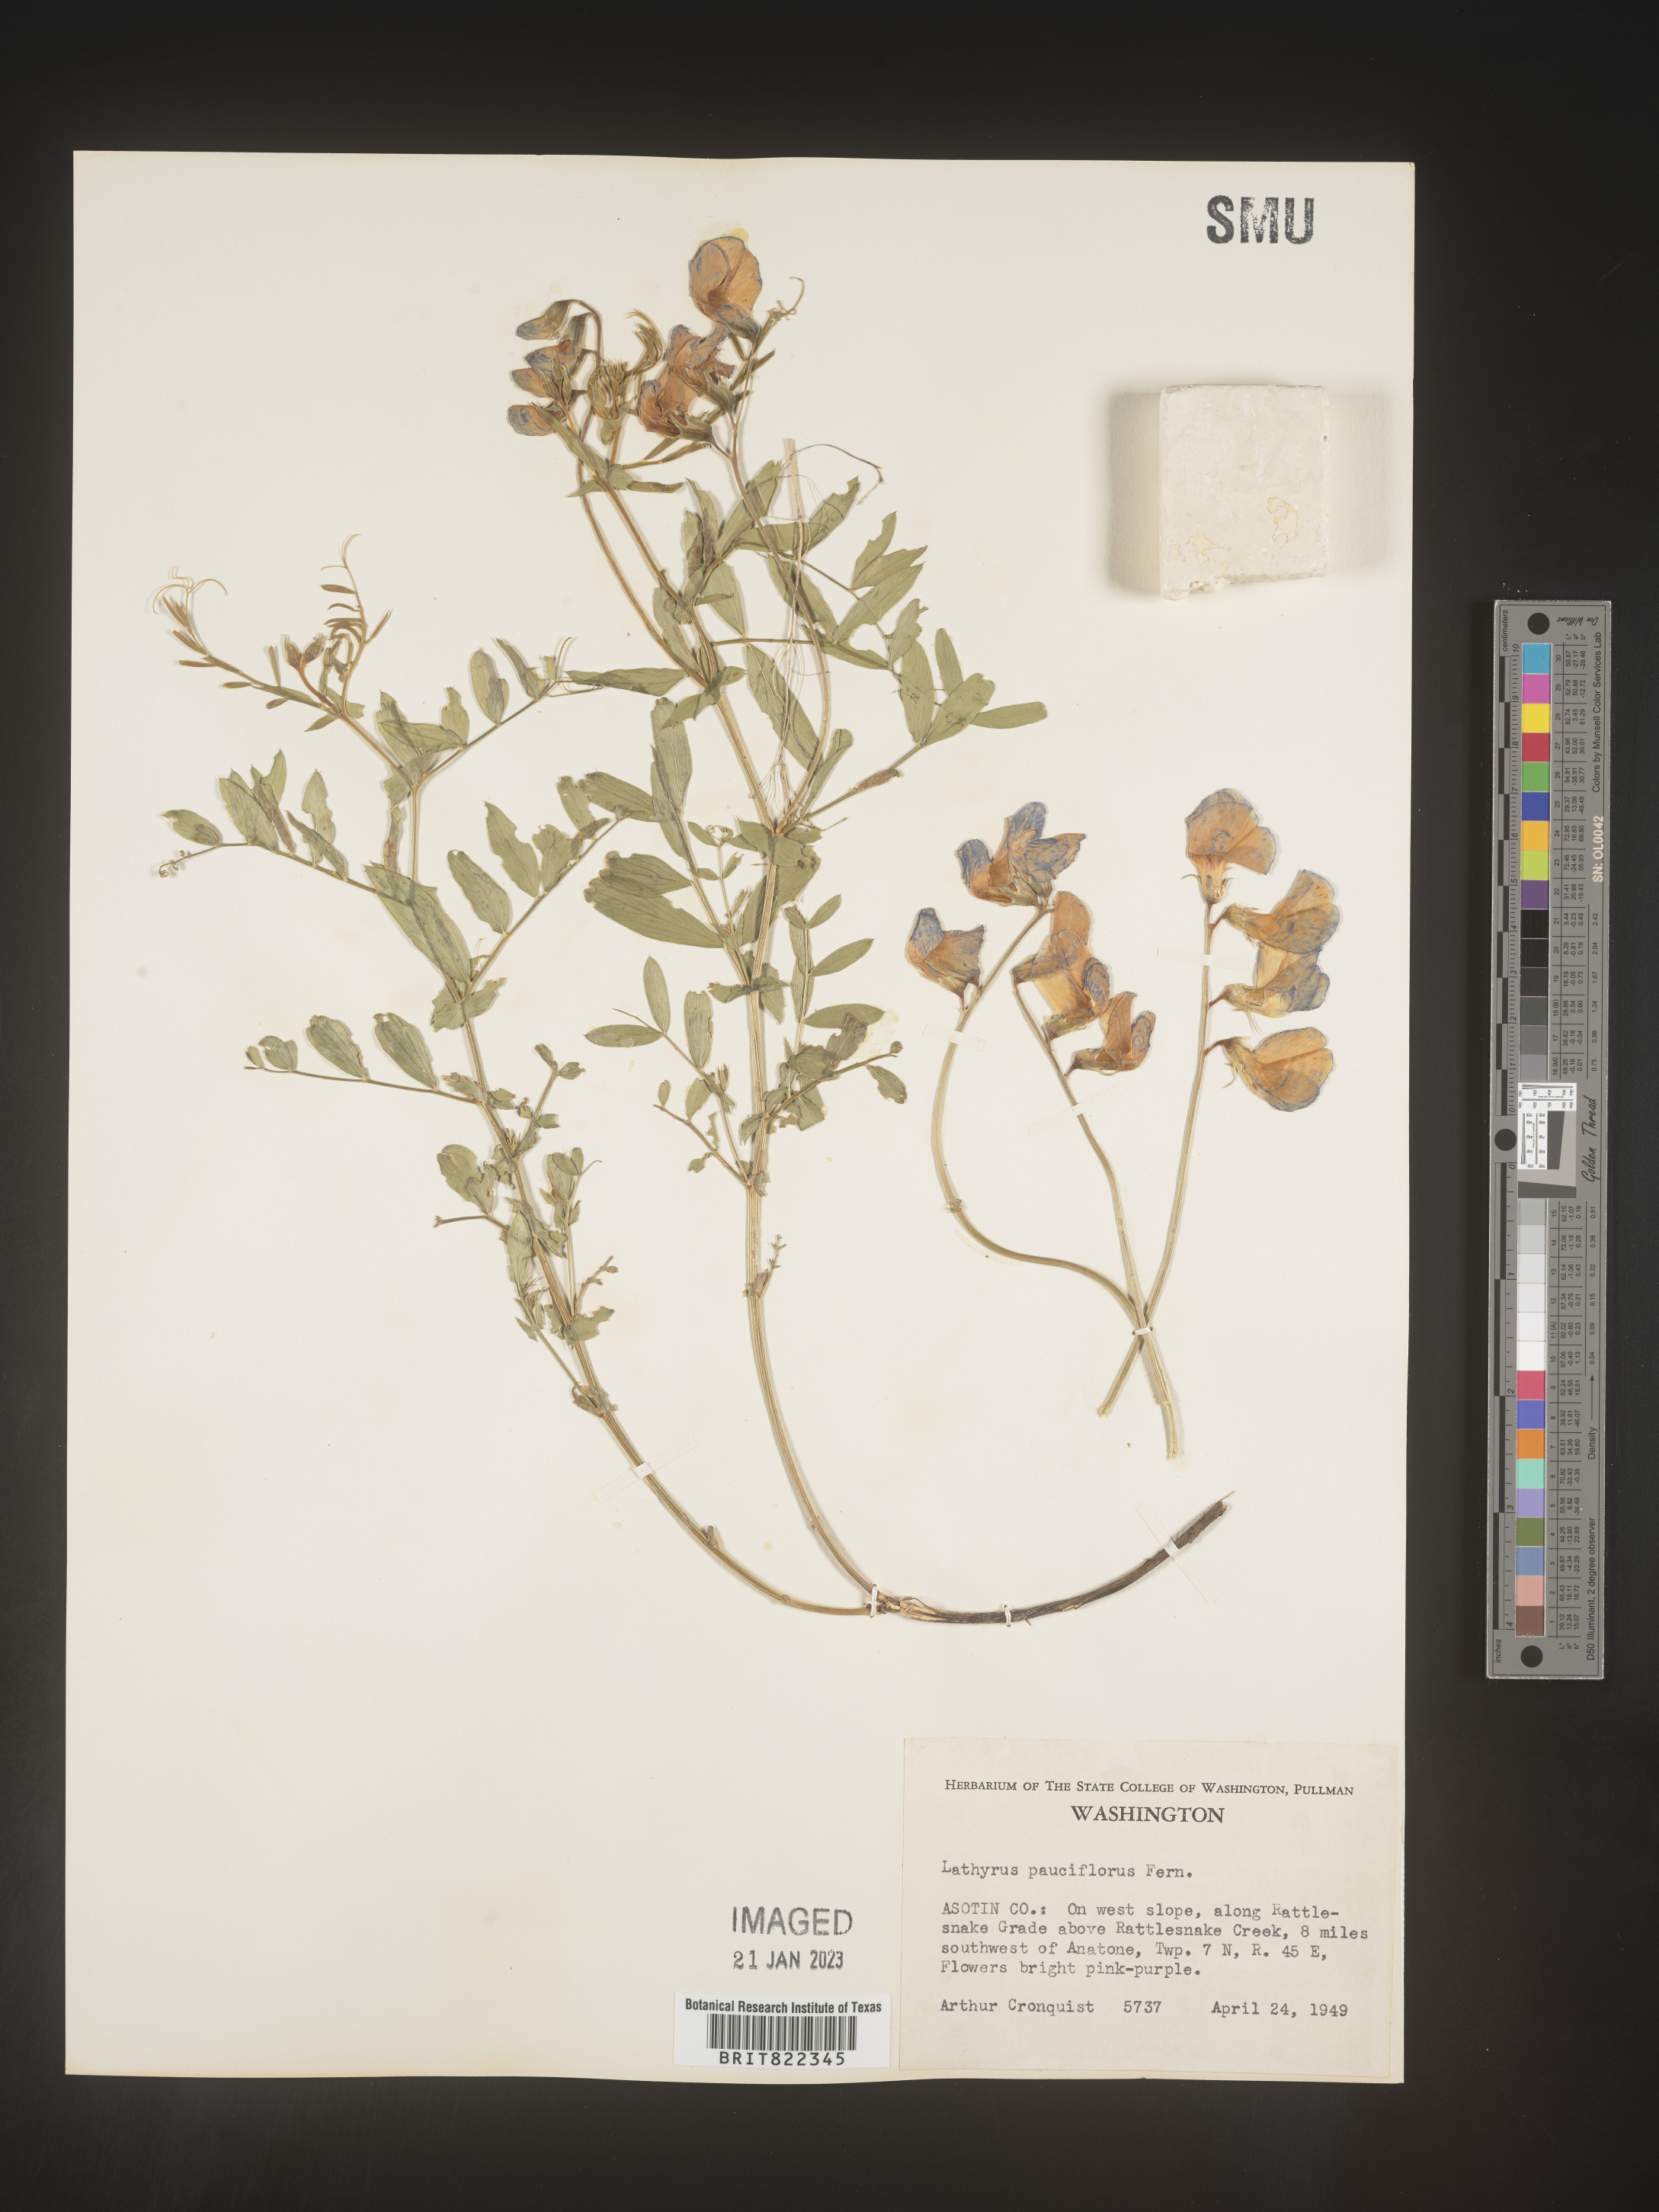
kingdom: Plantae
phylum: Tracheophyta
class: Magnoliopsida
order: Fabales
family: Fabaceae
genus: Lathyrus
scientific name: Lathyrus pauciflorus
